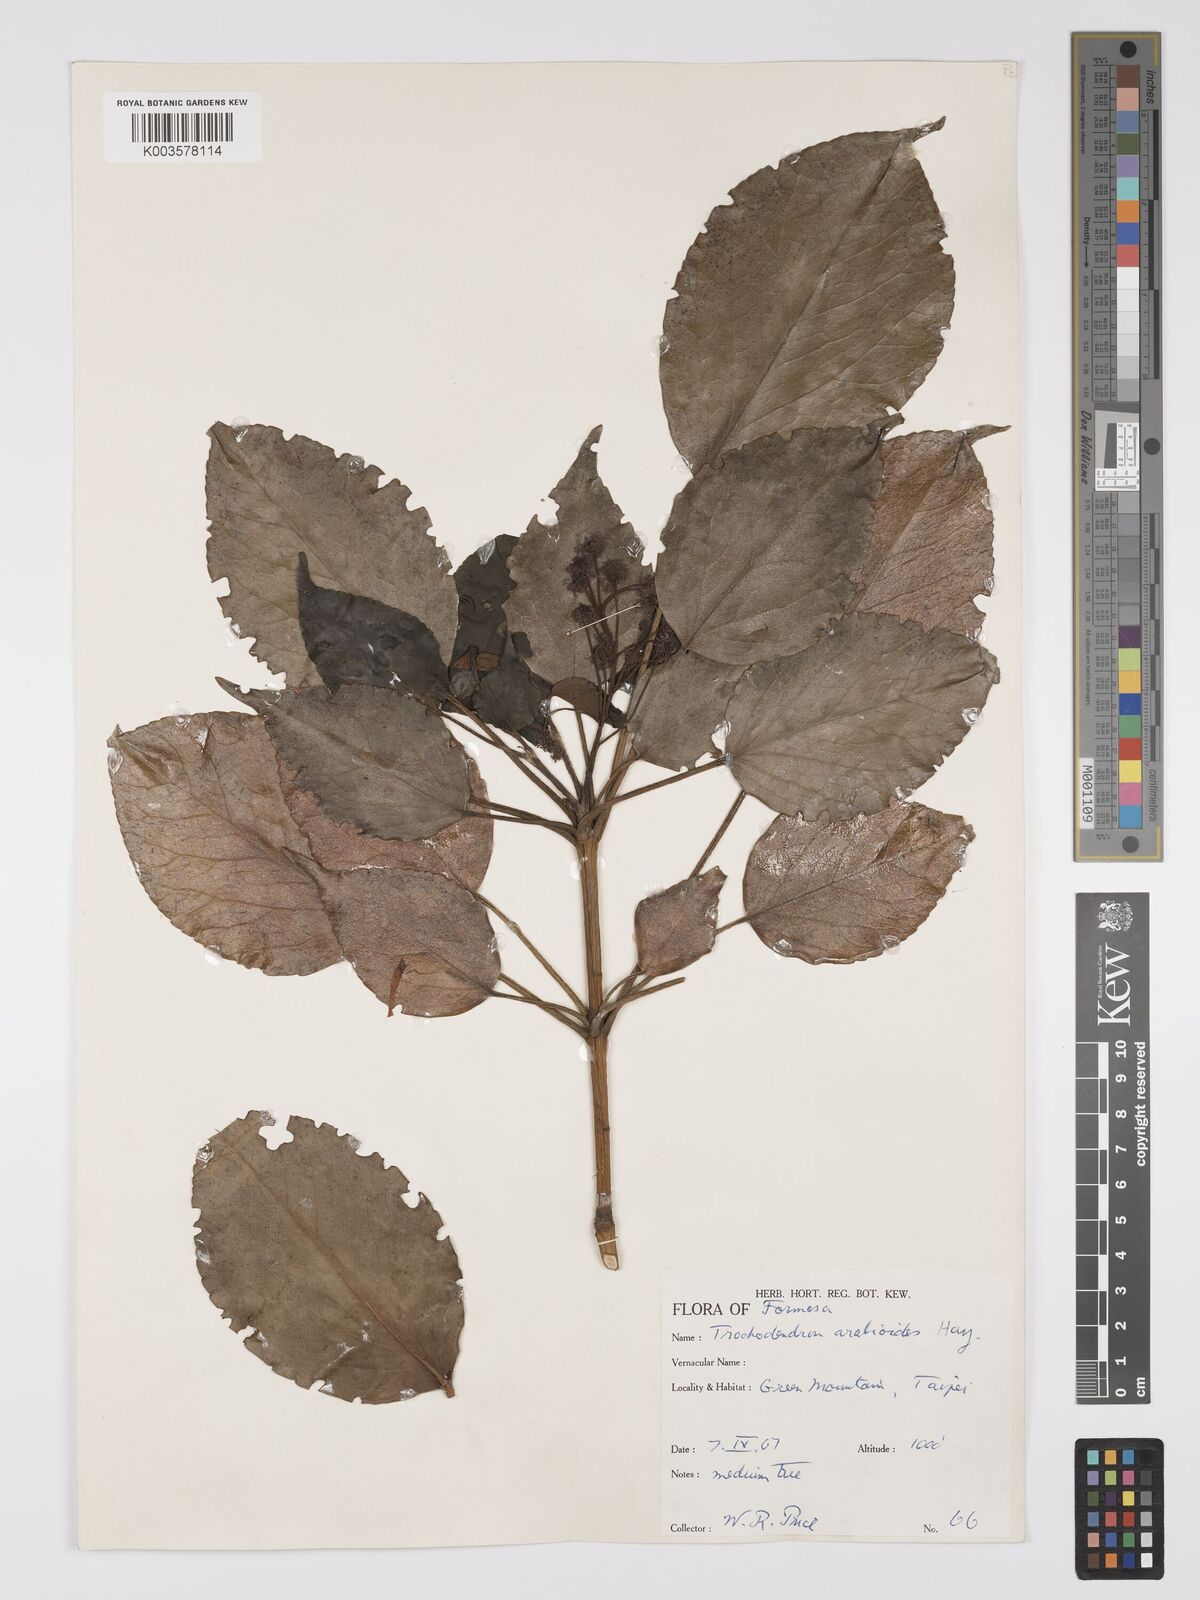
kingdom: Plantae
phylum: Tracheophyta
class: Magnoliopsida
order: Trochodendrales
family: Trochodendraceae
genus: Trochodendron
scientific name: Trochodendron
